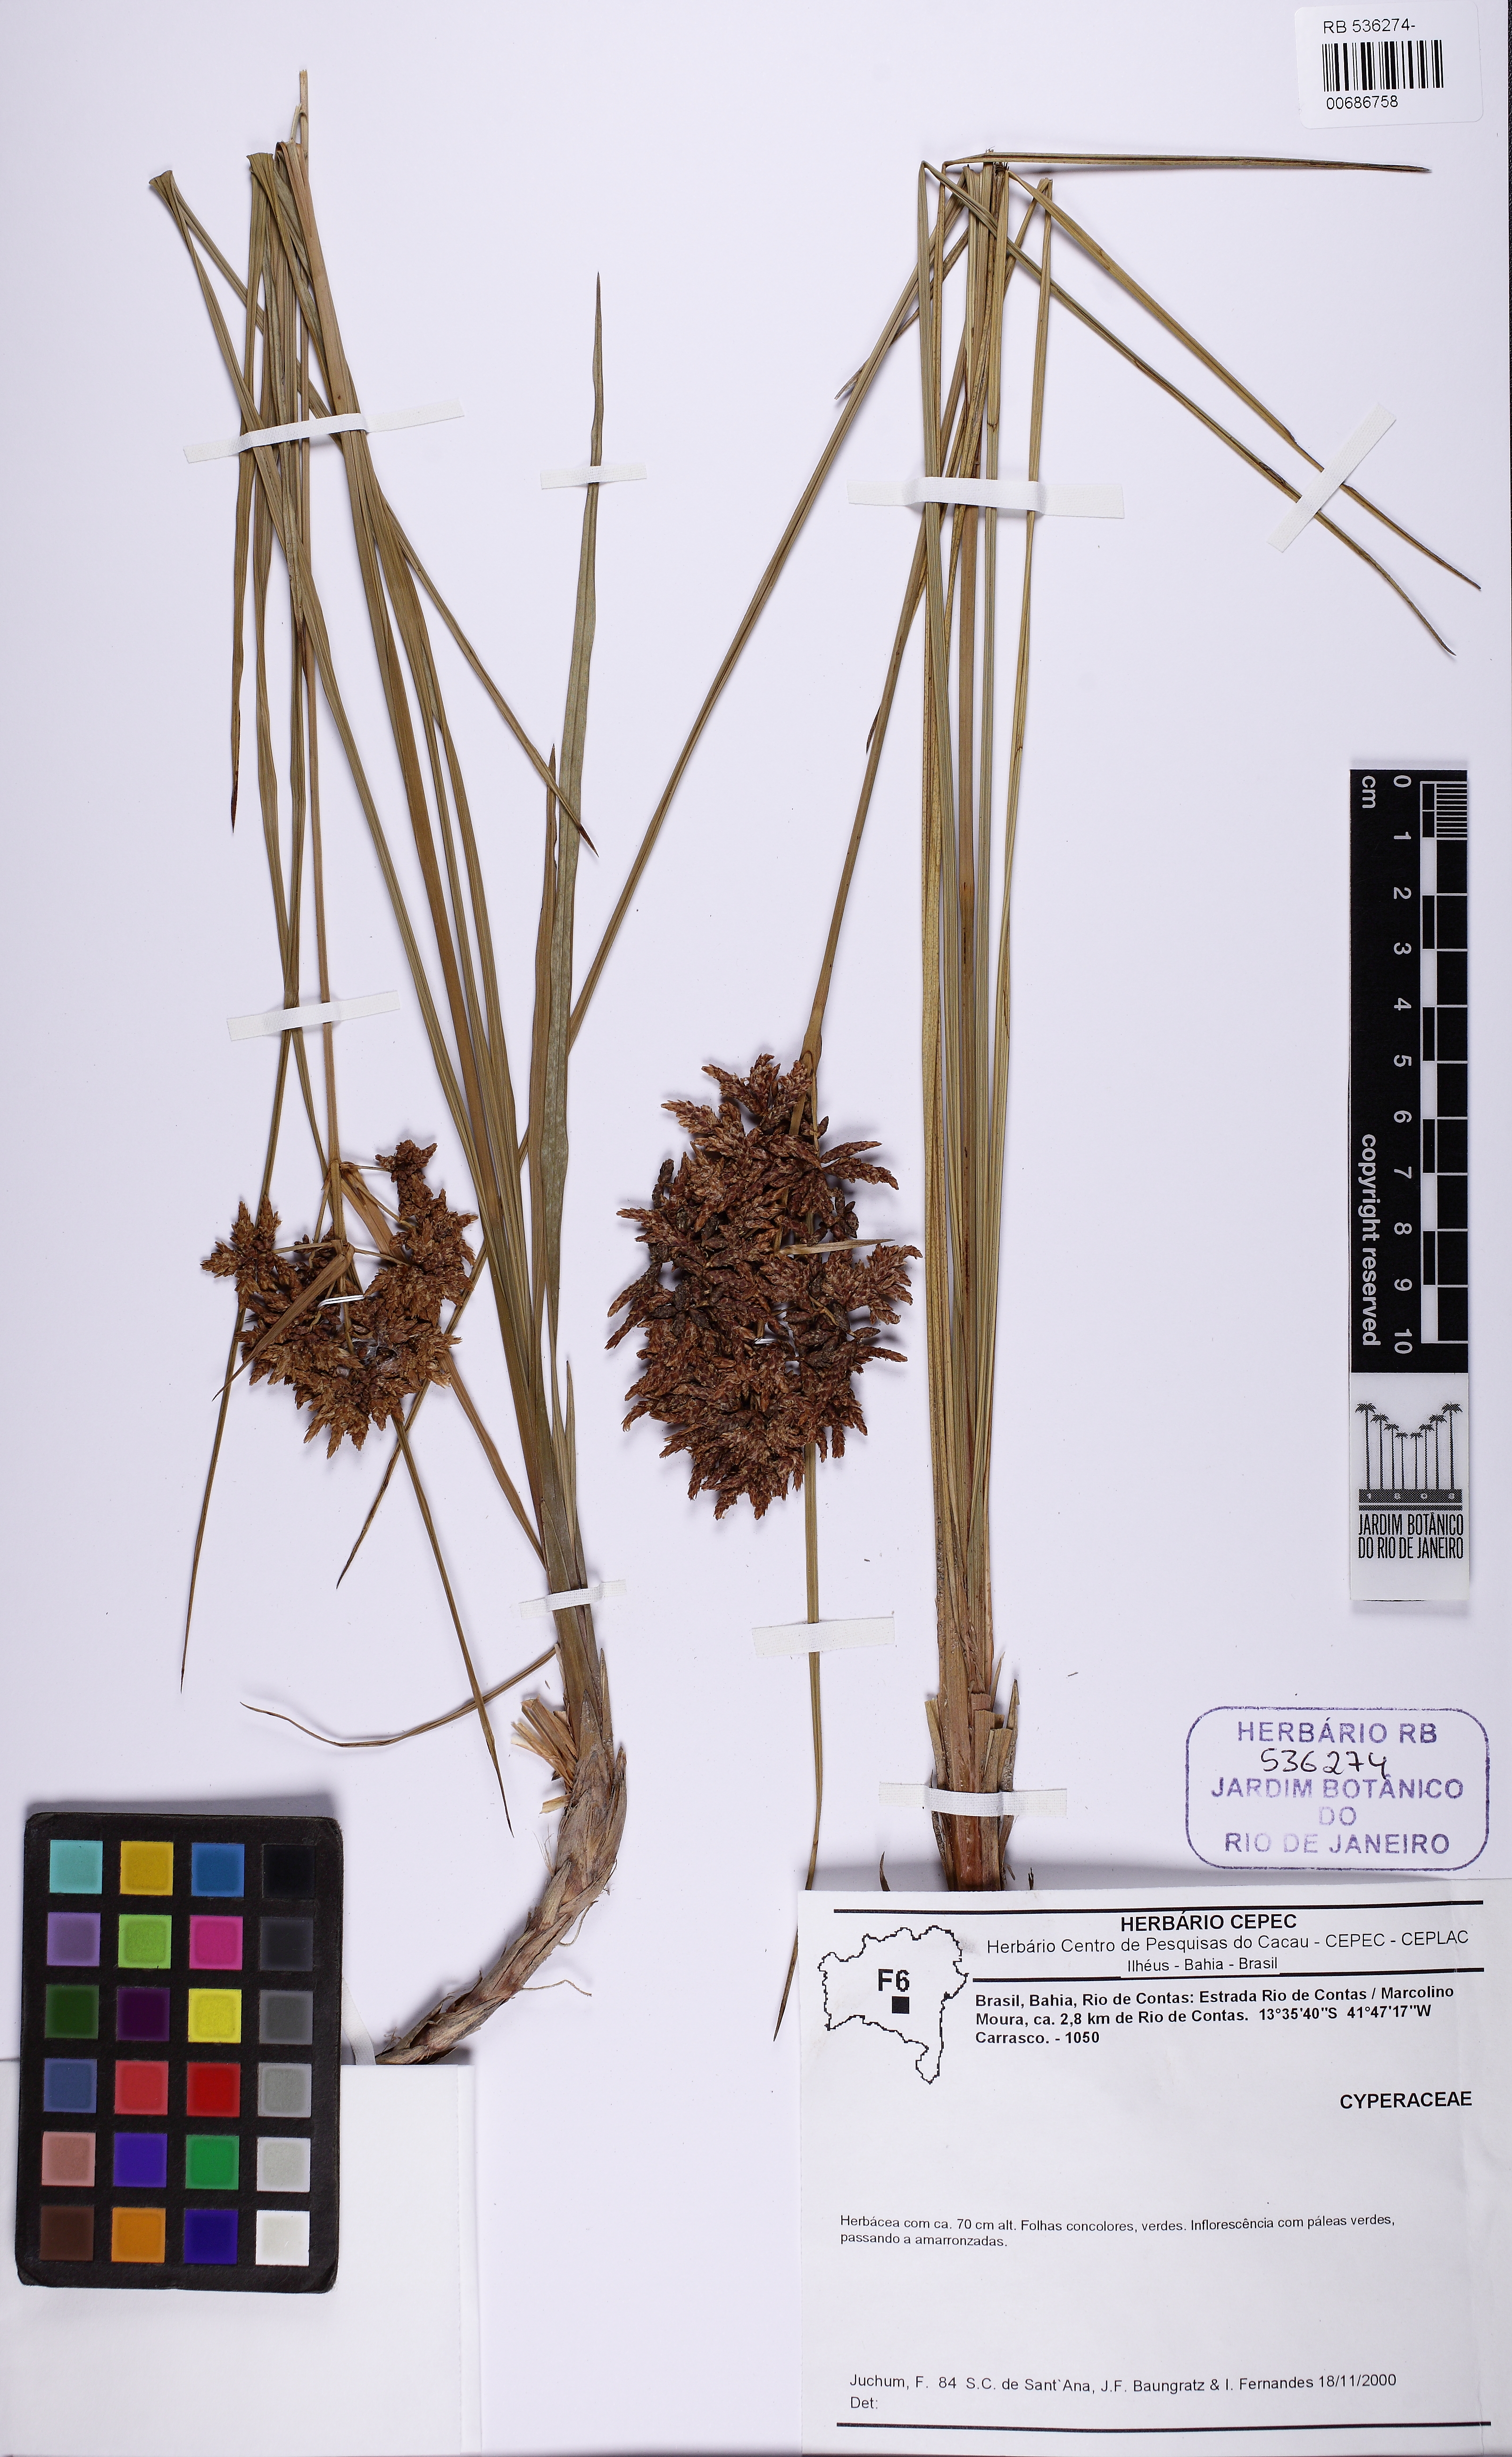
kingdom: Plantae
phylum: Tracheophyta
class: Liliopsida
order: Poales
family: Cyperaceae
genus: Hypolytrum
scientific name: Hypolytrum supervacuum
